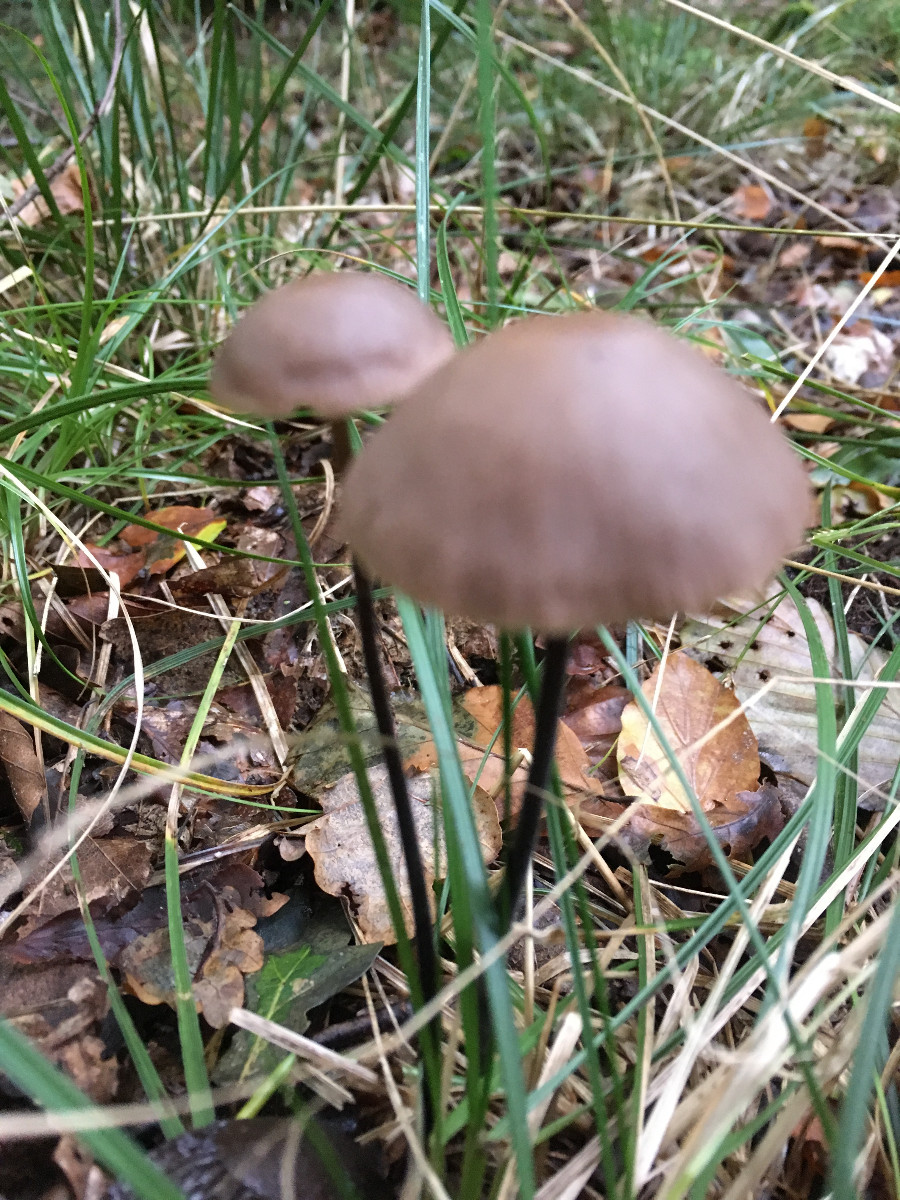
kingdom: Fungi
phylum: Basidiomycota
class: Agaricomycetes
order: Agaricales
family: Omphalotaceae
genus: Mycetinis
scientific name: Mycetinis alliaceus
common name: stor løghat
